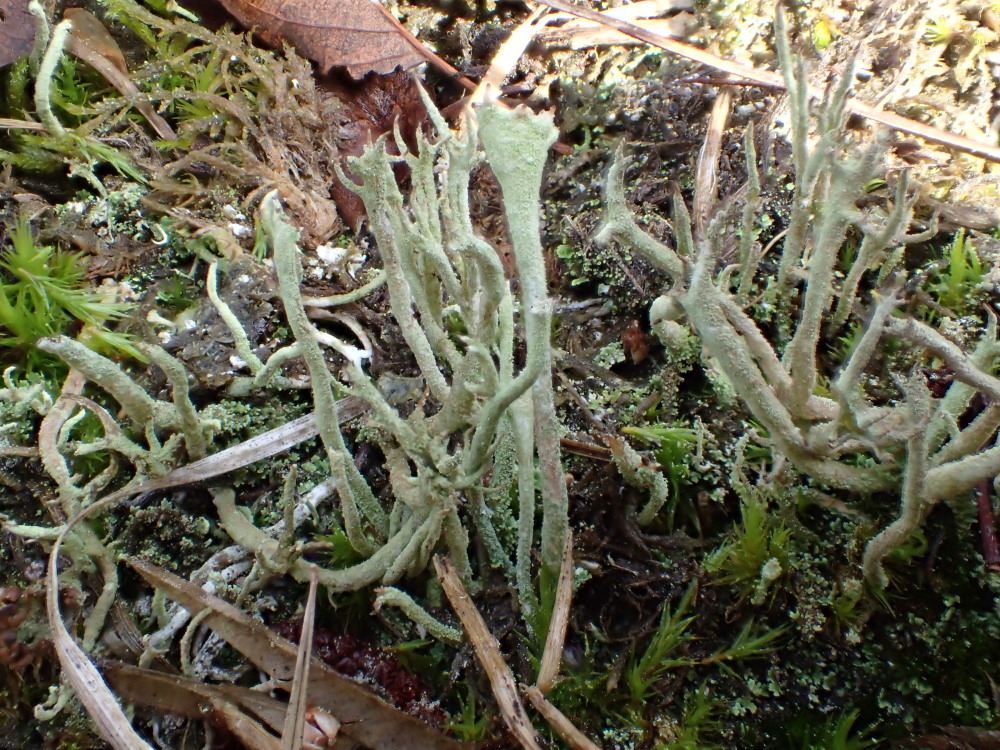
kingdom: Fungi
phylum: Ascomycota
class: Lecanoromycetes
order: Lecanorales
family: Cladoniaceae
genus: Cladonia
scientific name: Cladonia ochrochlora
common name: stød-bægerlav
